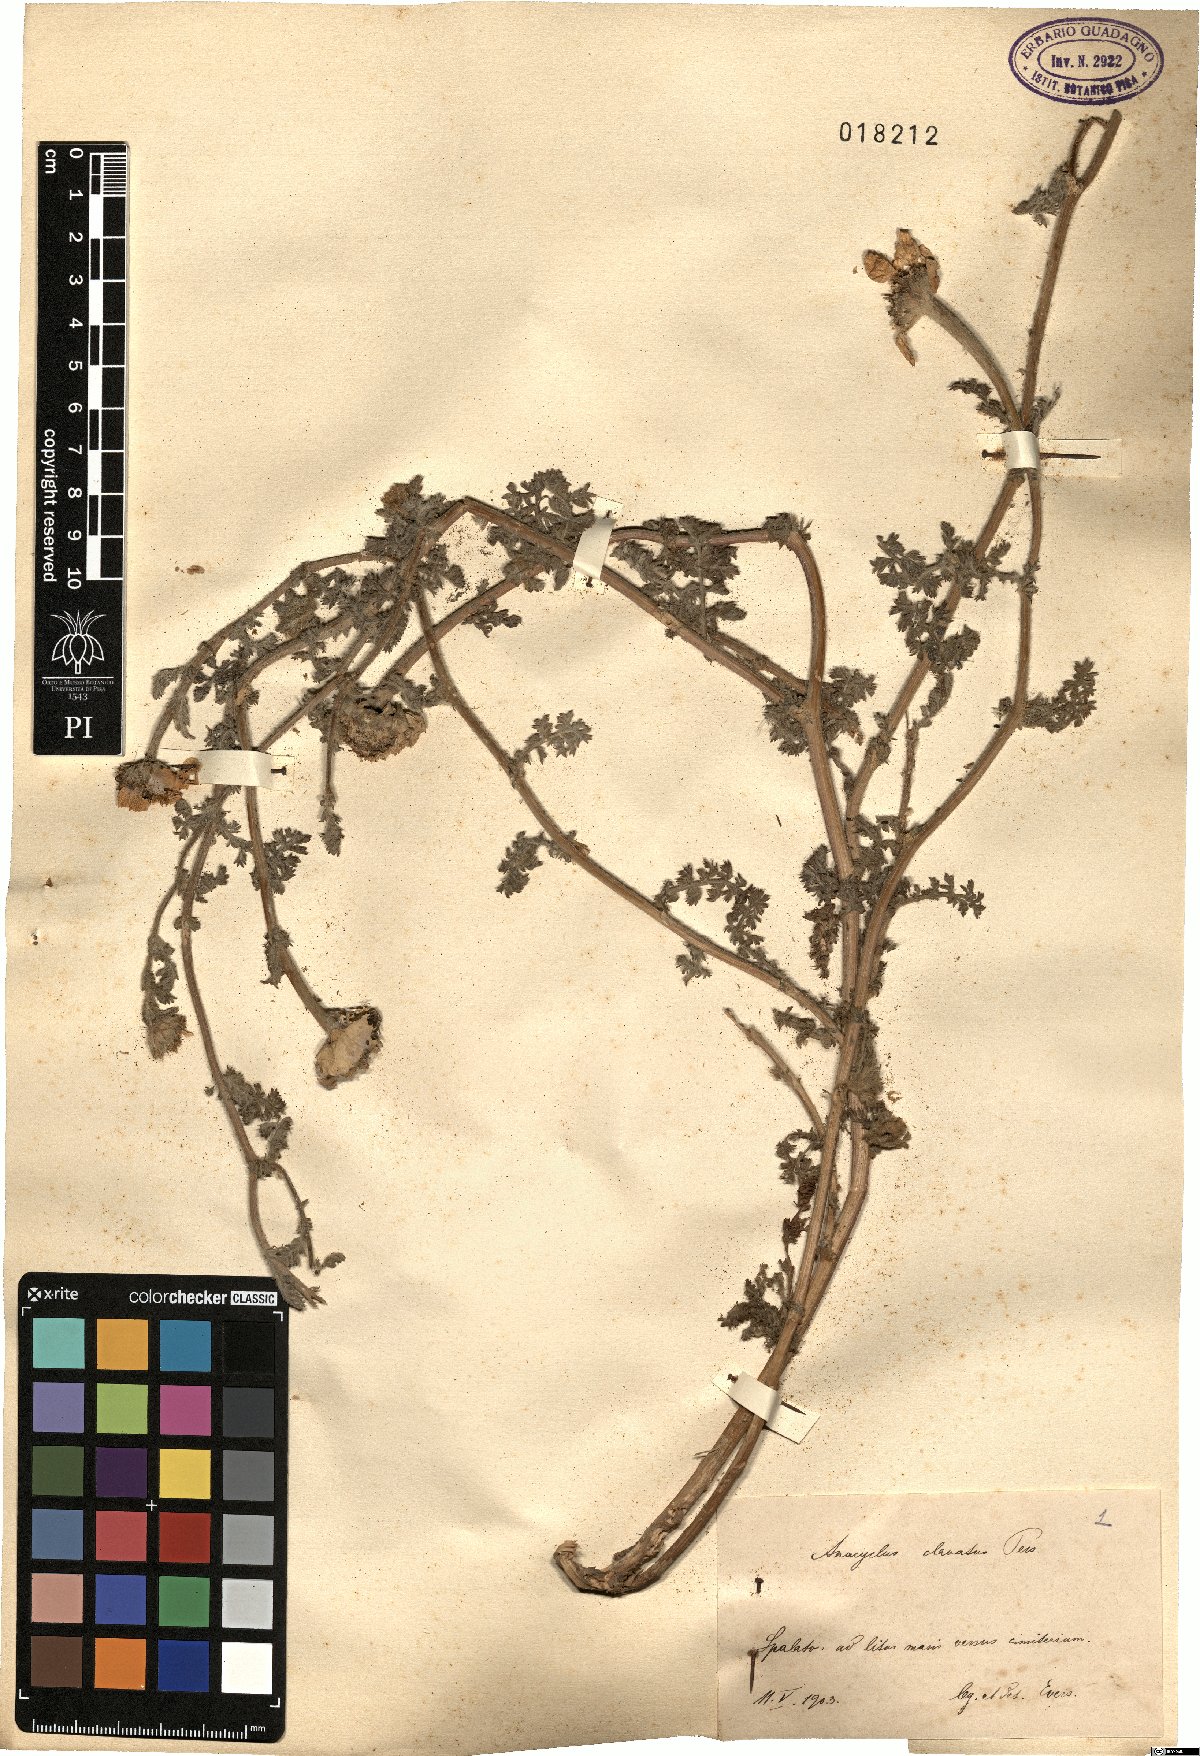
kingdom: Plantae
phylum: Tracheophyta
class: Magnoliopsida
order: Asterales
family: Asteraceae
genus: Anacyclus
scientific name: Anacyclus clavatus
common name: Whitebuttons
